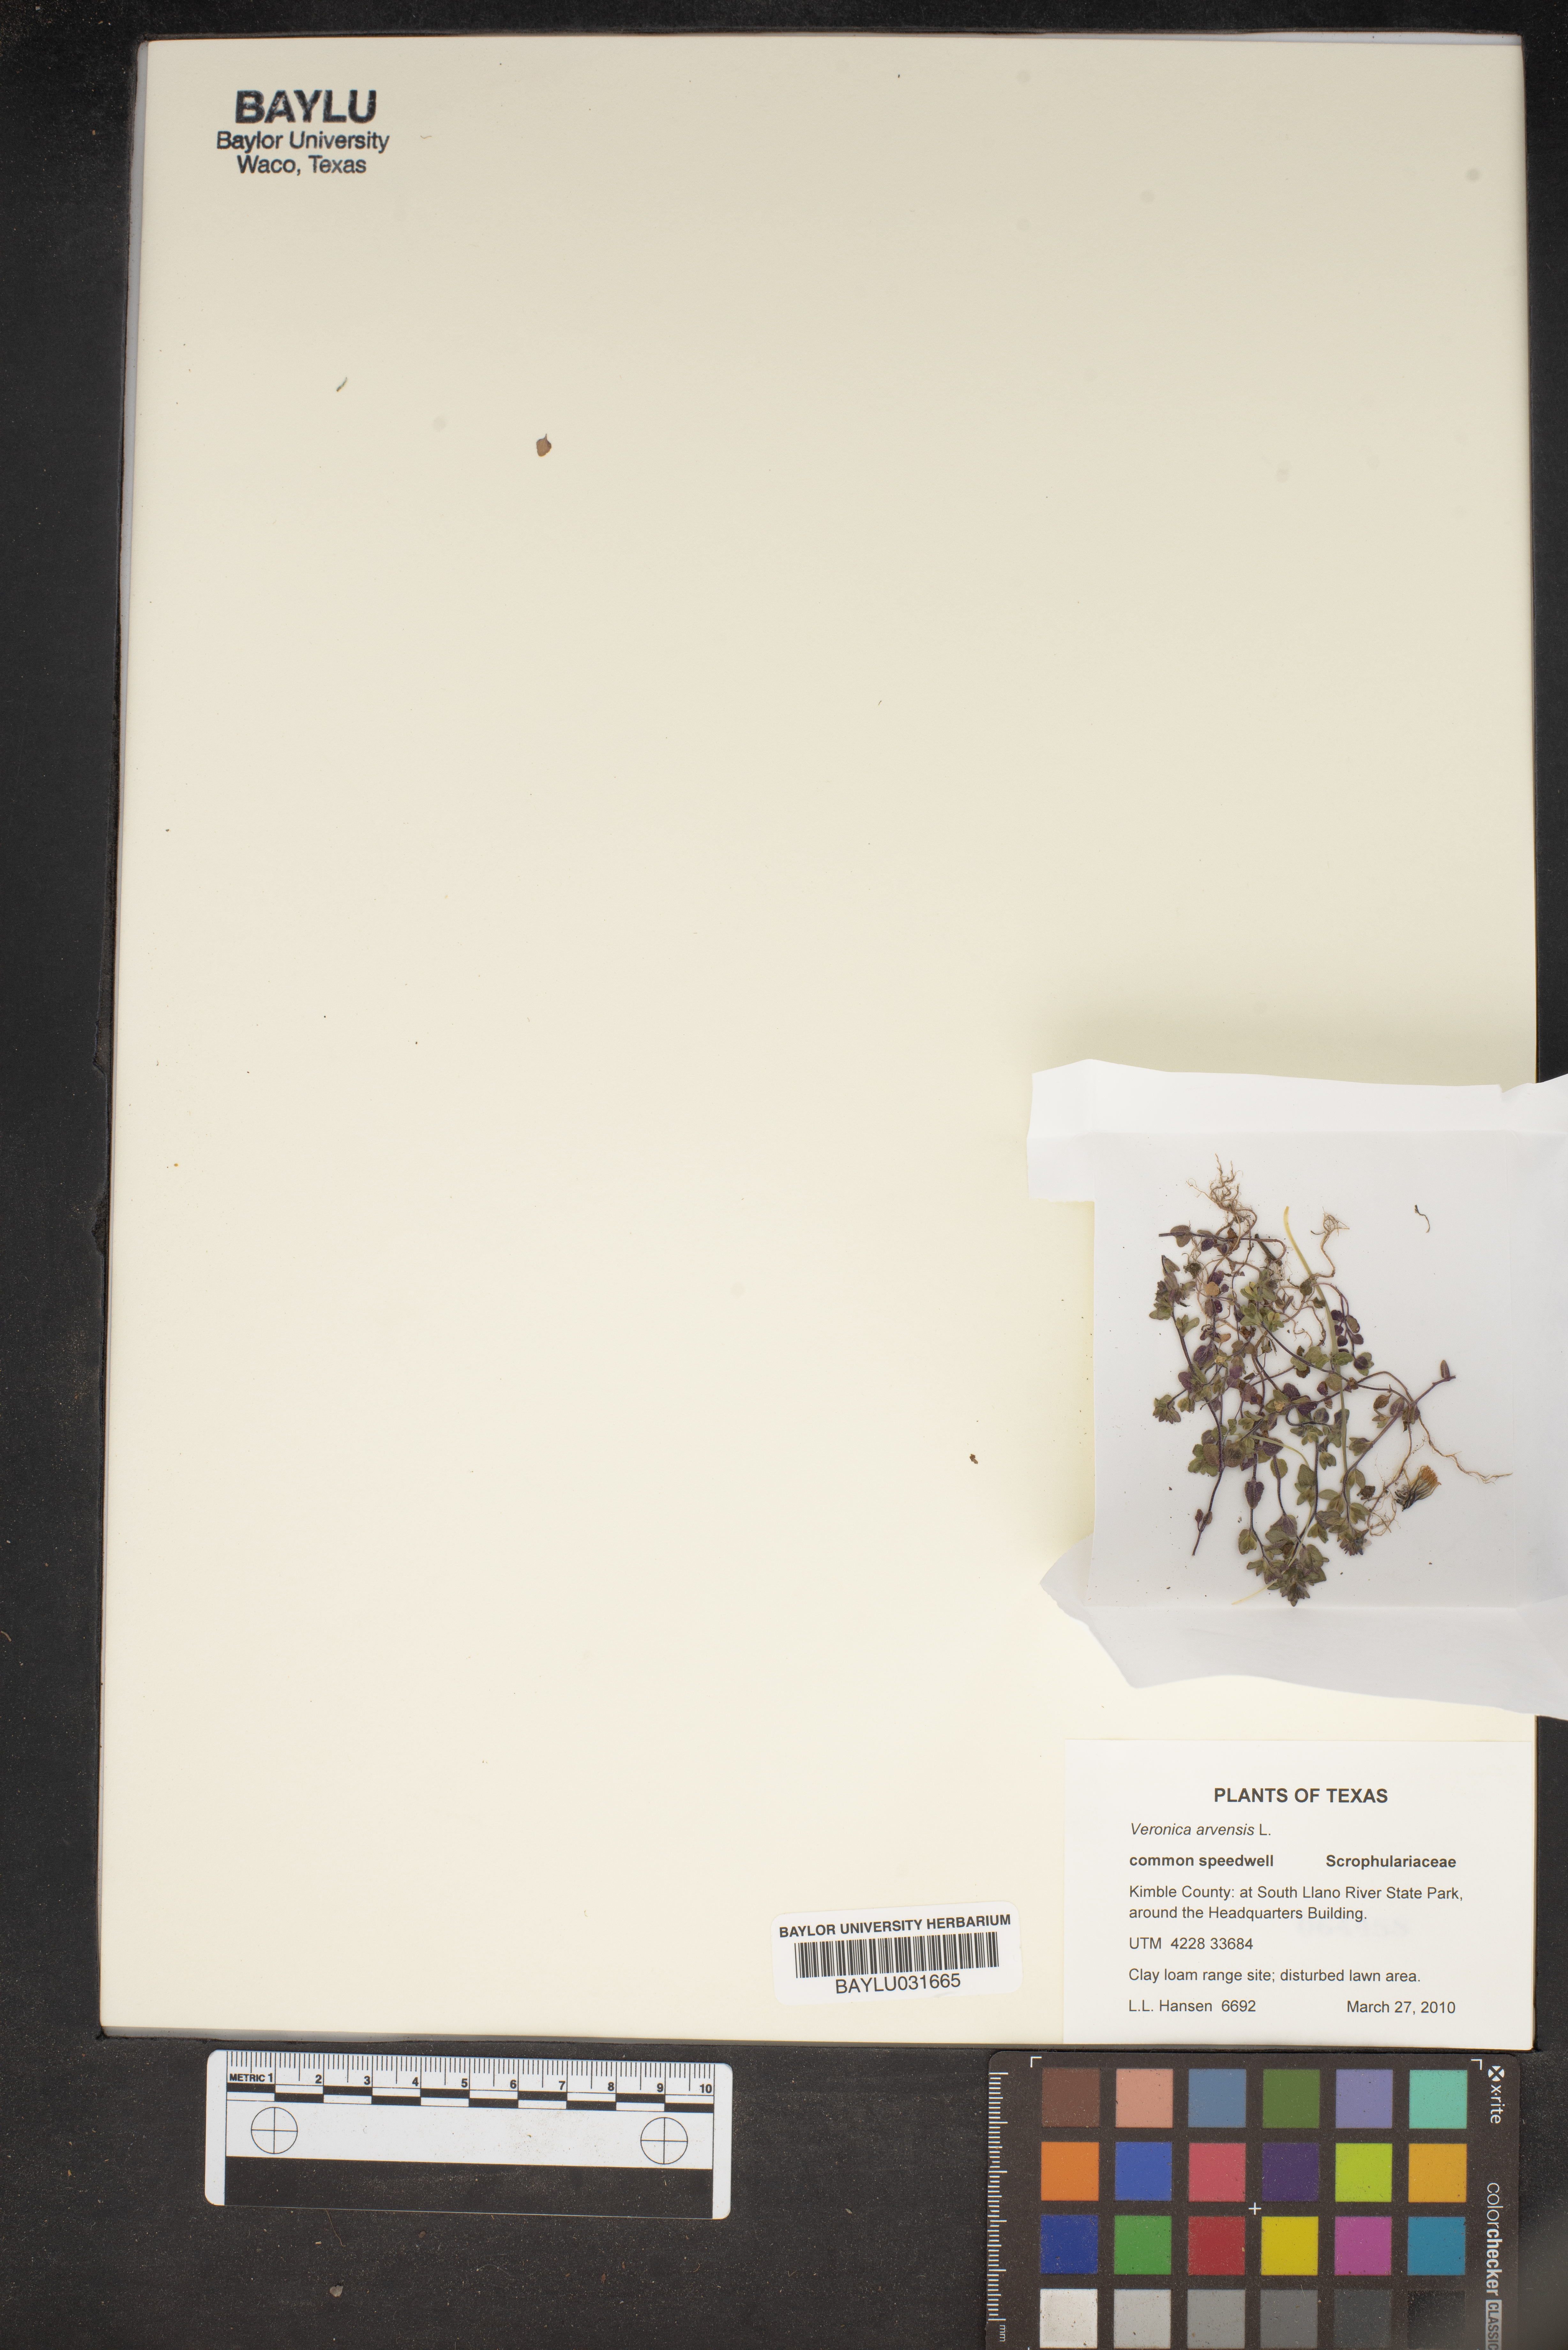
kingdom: Plantae
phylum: Tracheophyta
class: Magnoliopsida
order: Lamiales
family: Plantaginaceae
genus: Veronica
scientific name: Veronica arvensis
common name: Corn speedwell
